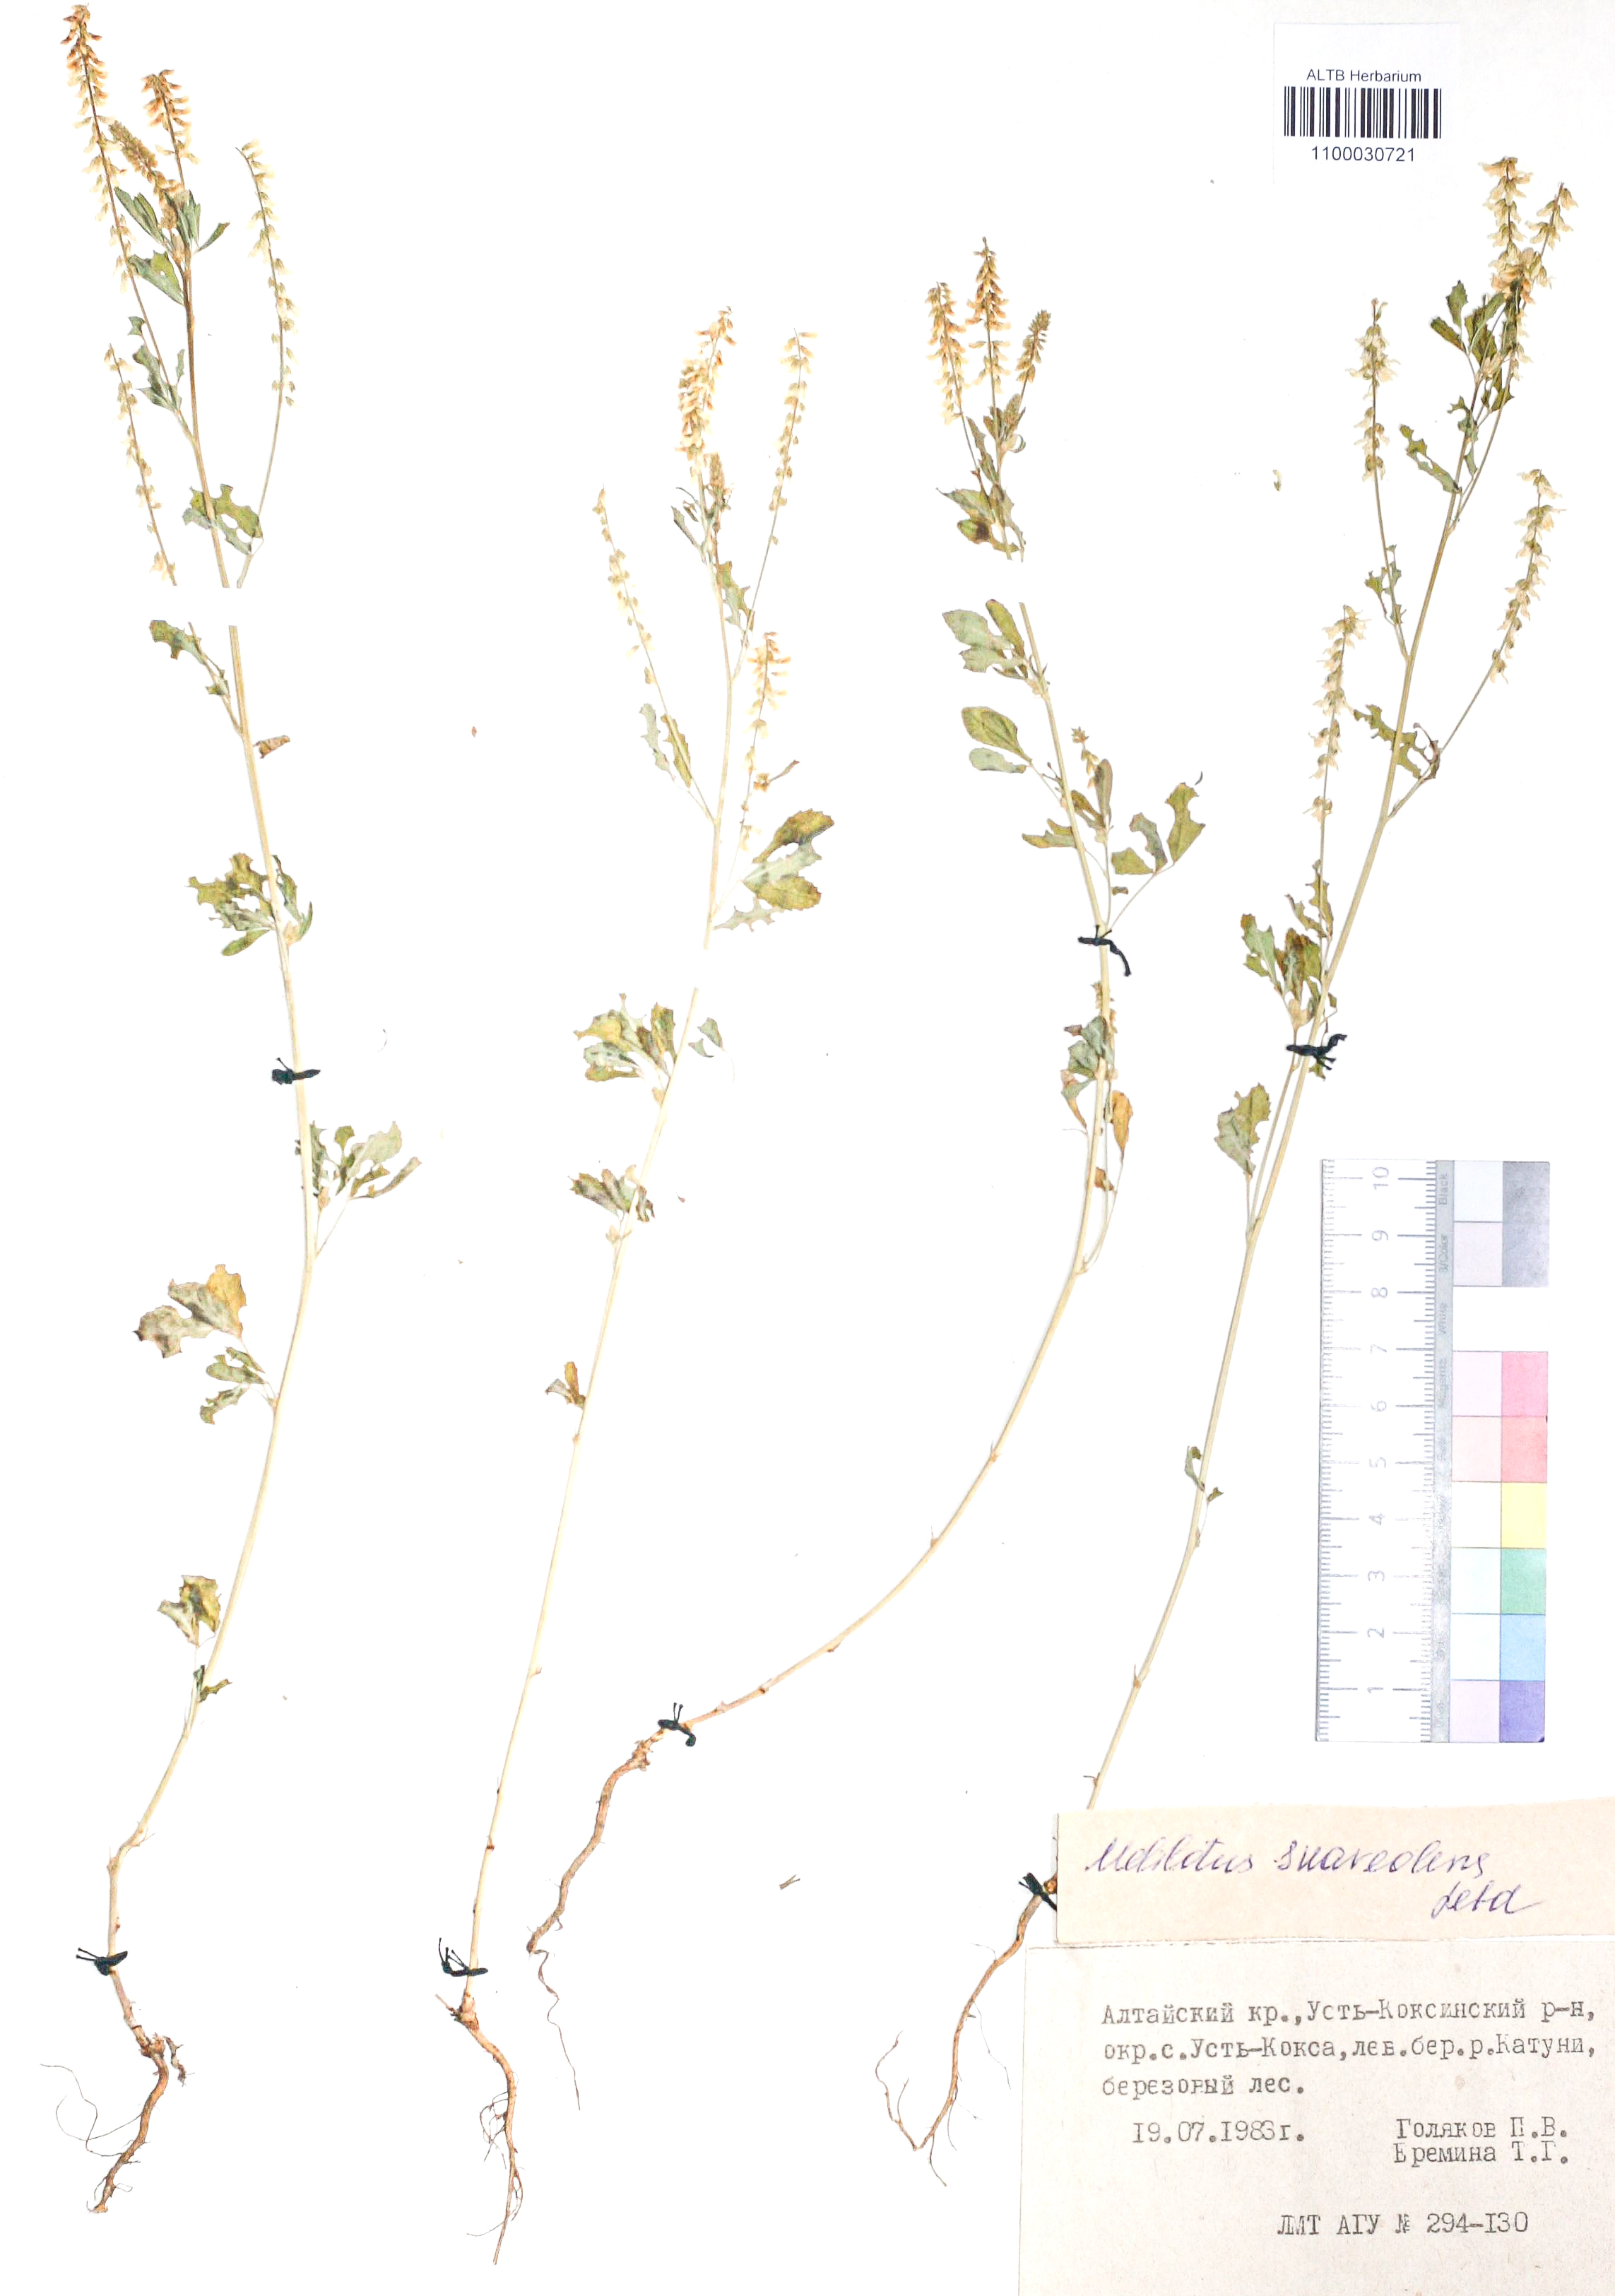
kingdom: Plantae
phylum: Tracheophyta
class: Magnoliopsida
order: Fabales
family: Fabaceae
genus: Melilotus
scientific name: Melilotus suaveolens
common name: Daghestan sweet-clover
